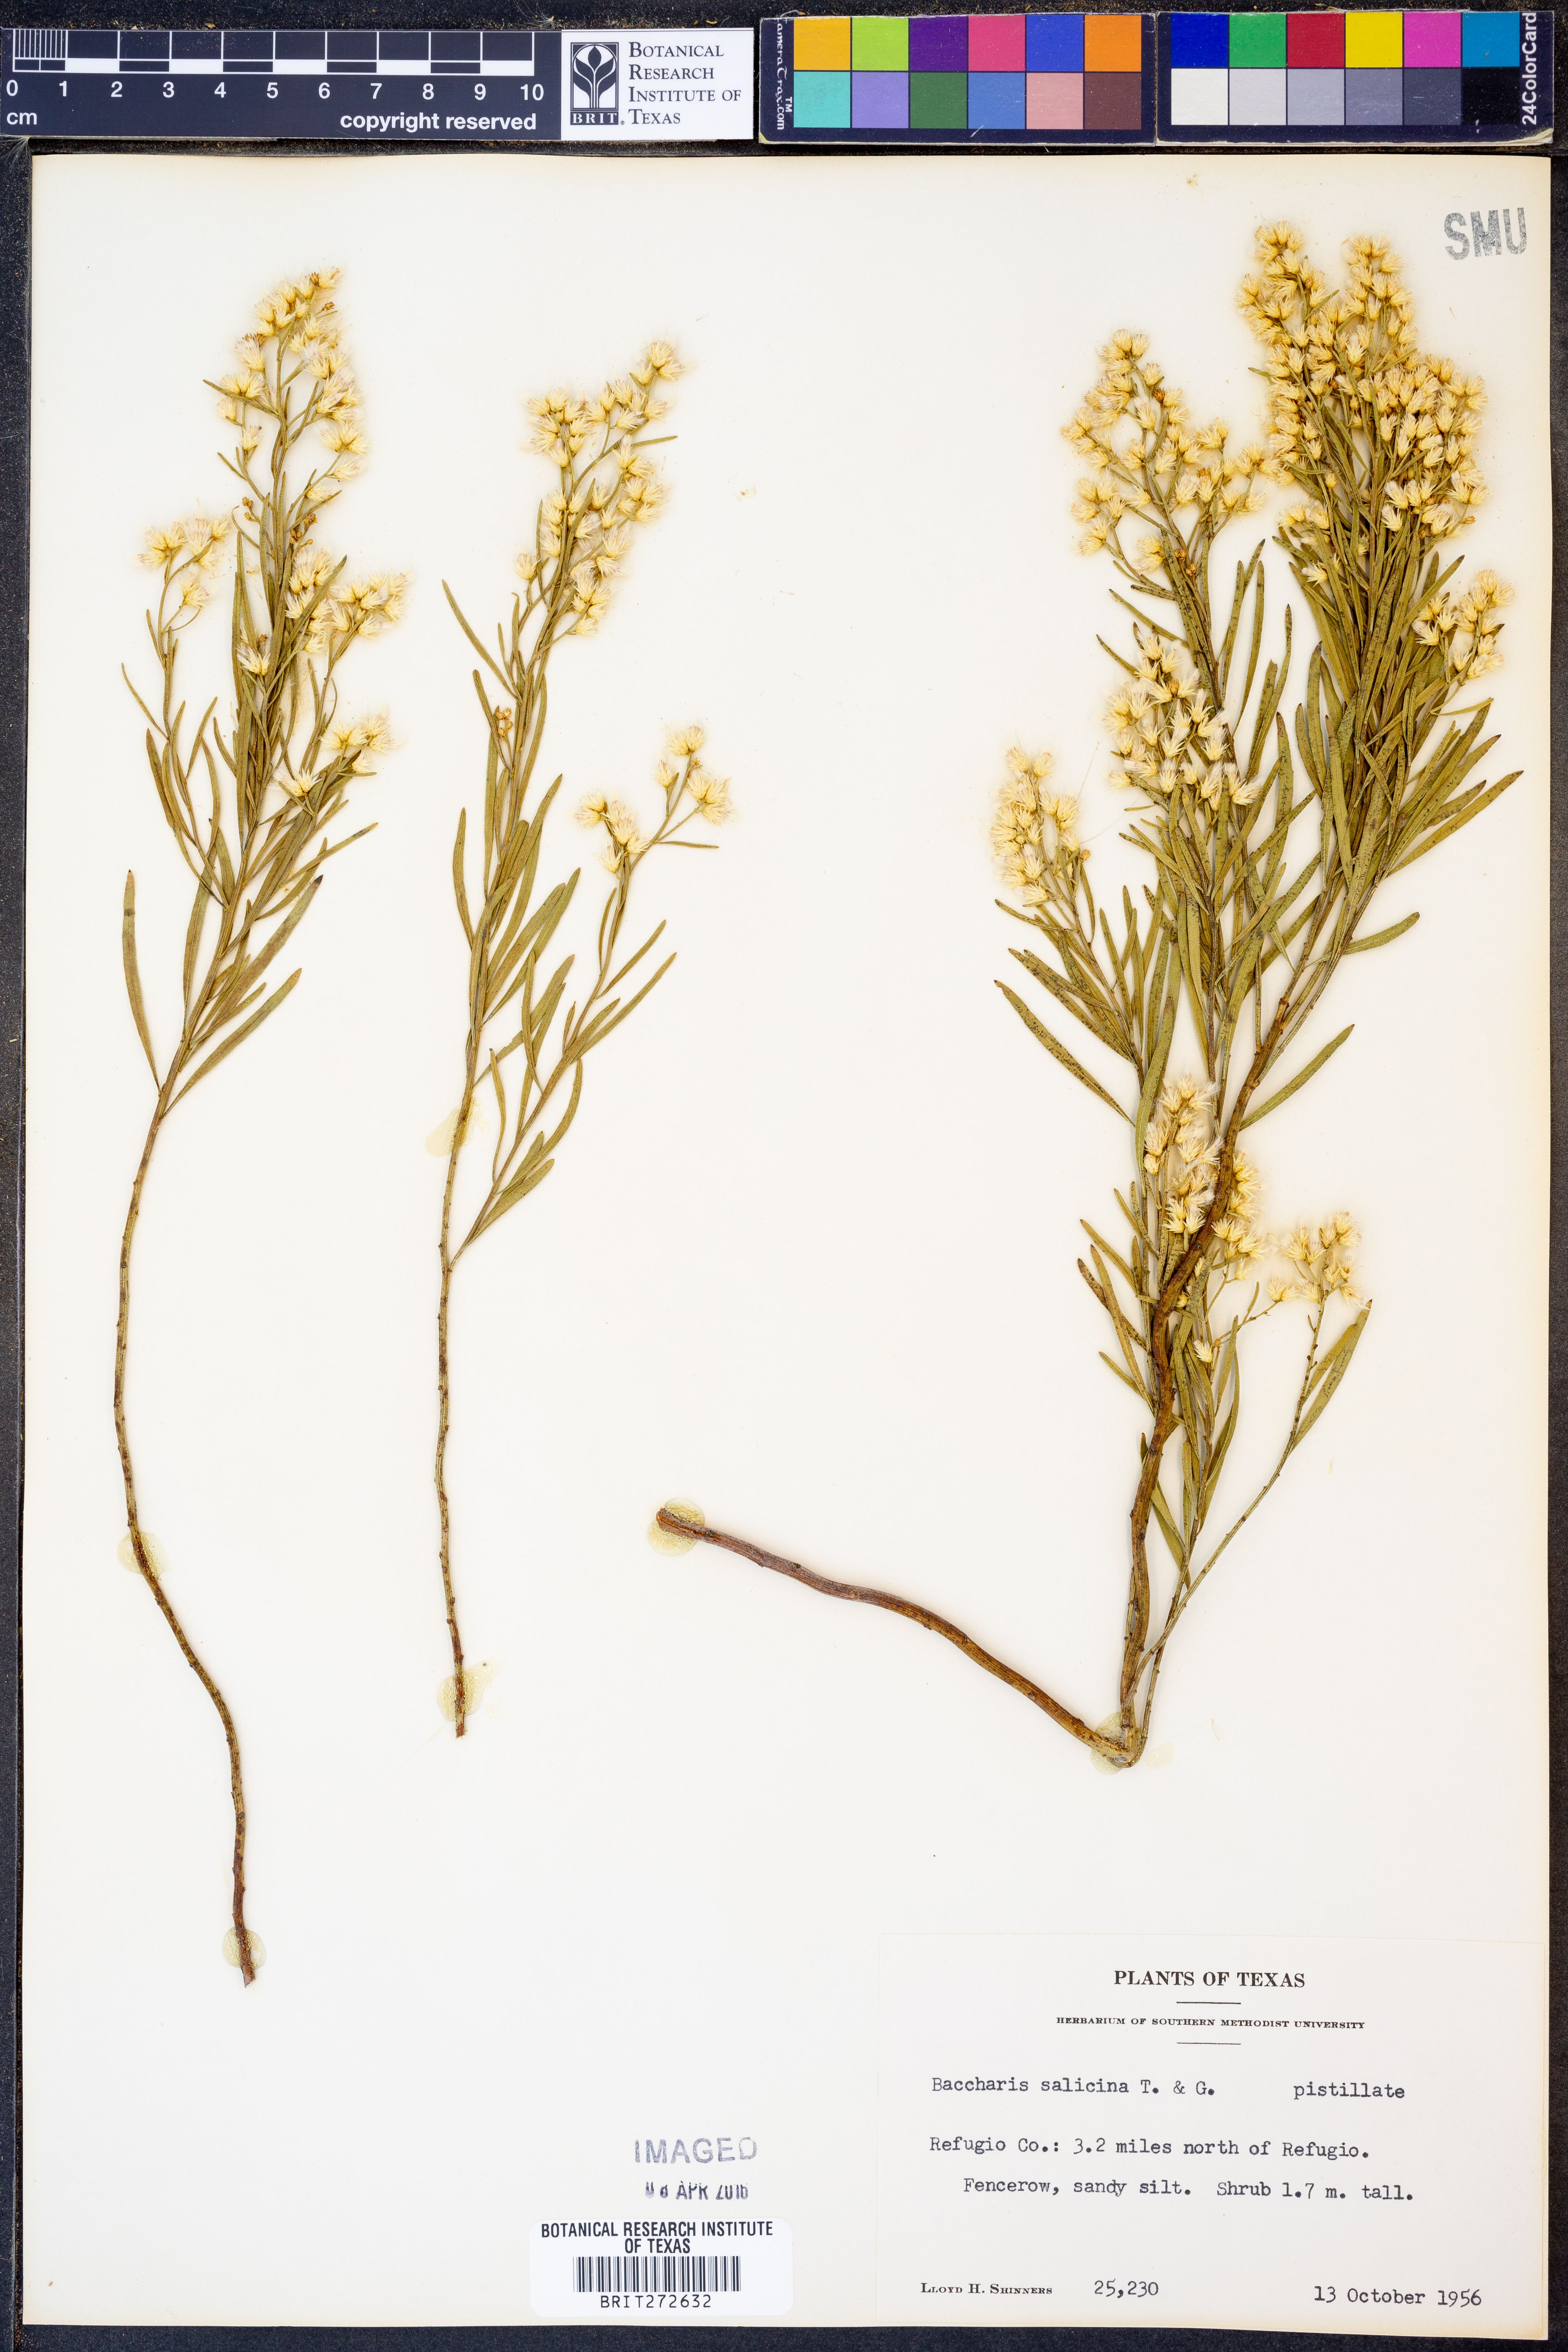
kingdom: Plantae
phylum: Tracheophyta
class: Magnoliopsida
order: Asterales
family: Asteraceae
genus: Baccharis
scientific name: Baccharis salicina
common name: Willow baccharis
